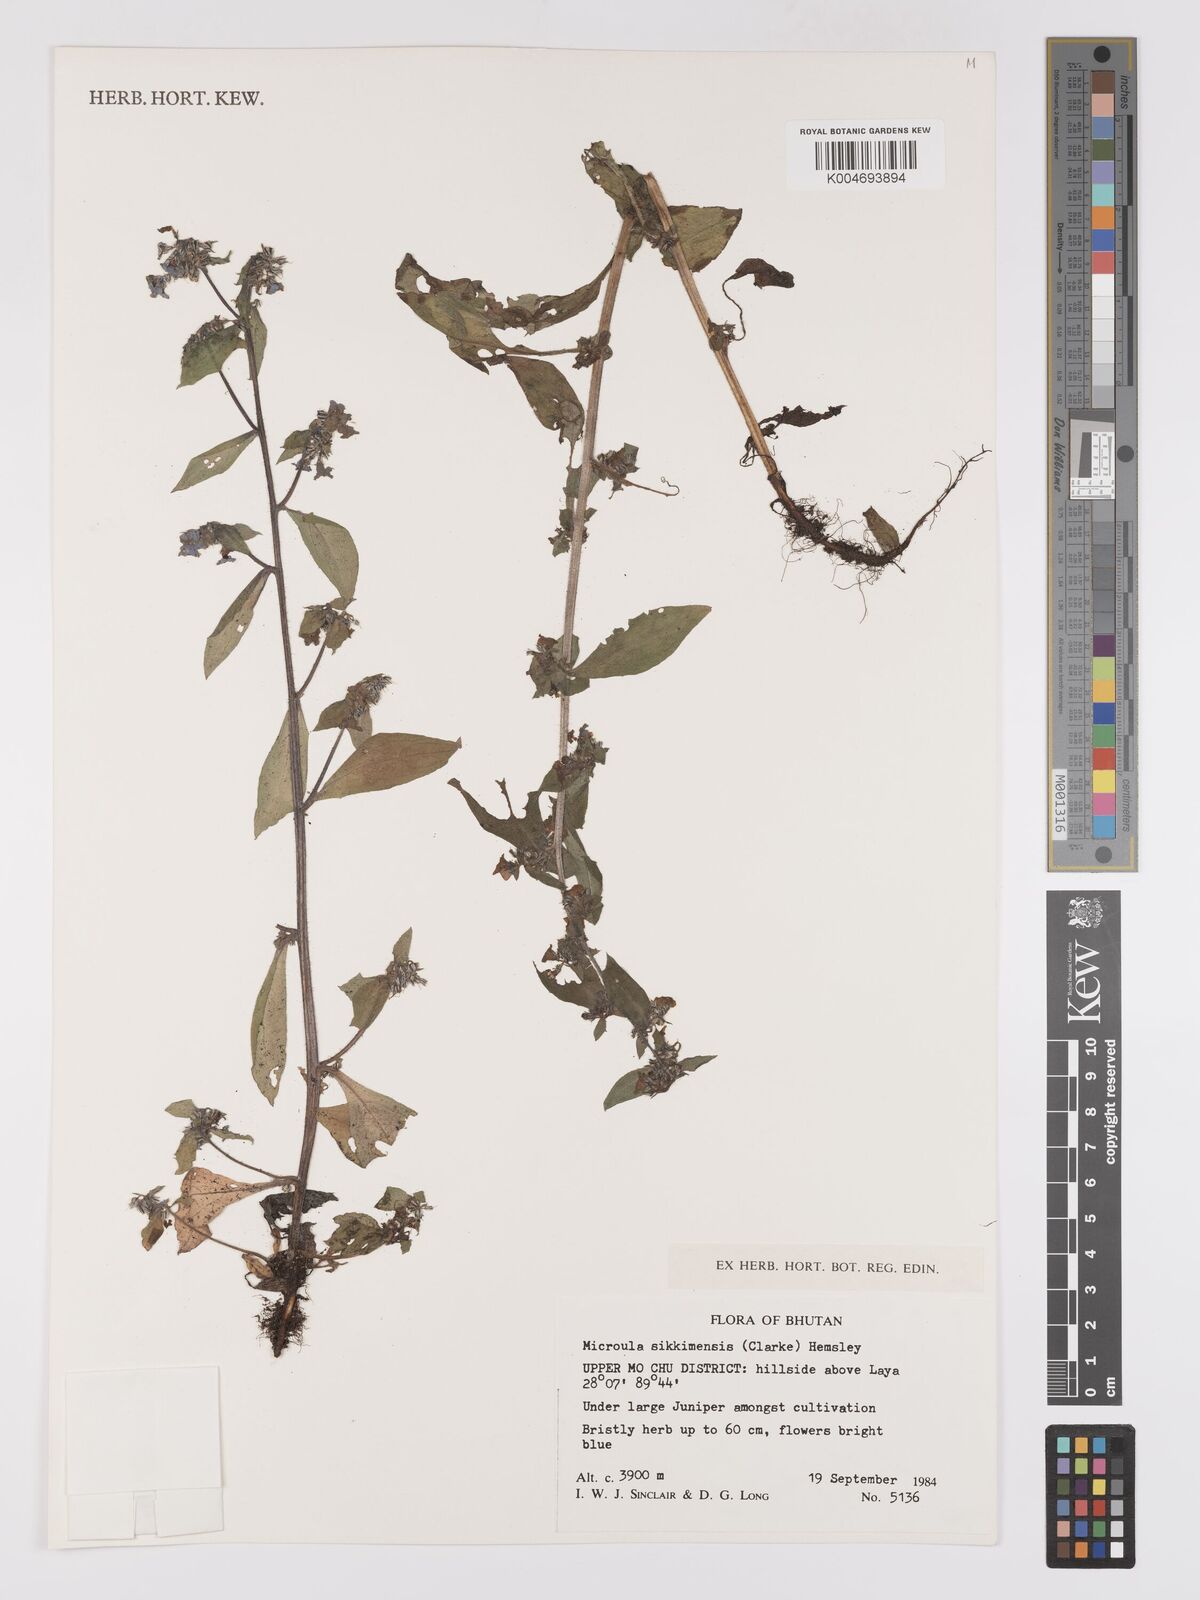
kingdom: Plantae
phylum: Tracheophyta
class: Magnoliopsida
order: Boraginales
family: Boraginaceae
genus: Microula
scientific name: Microula sikkimensis
